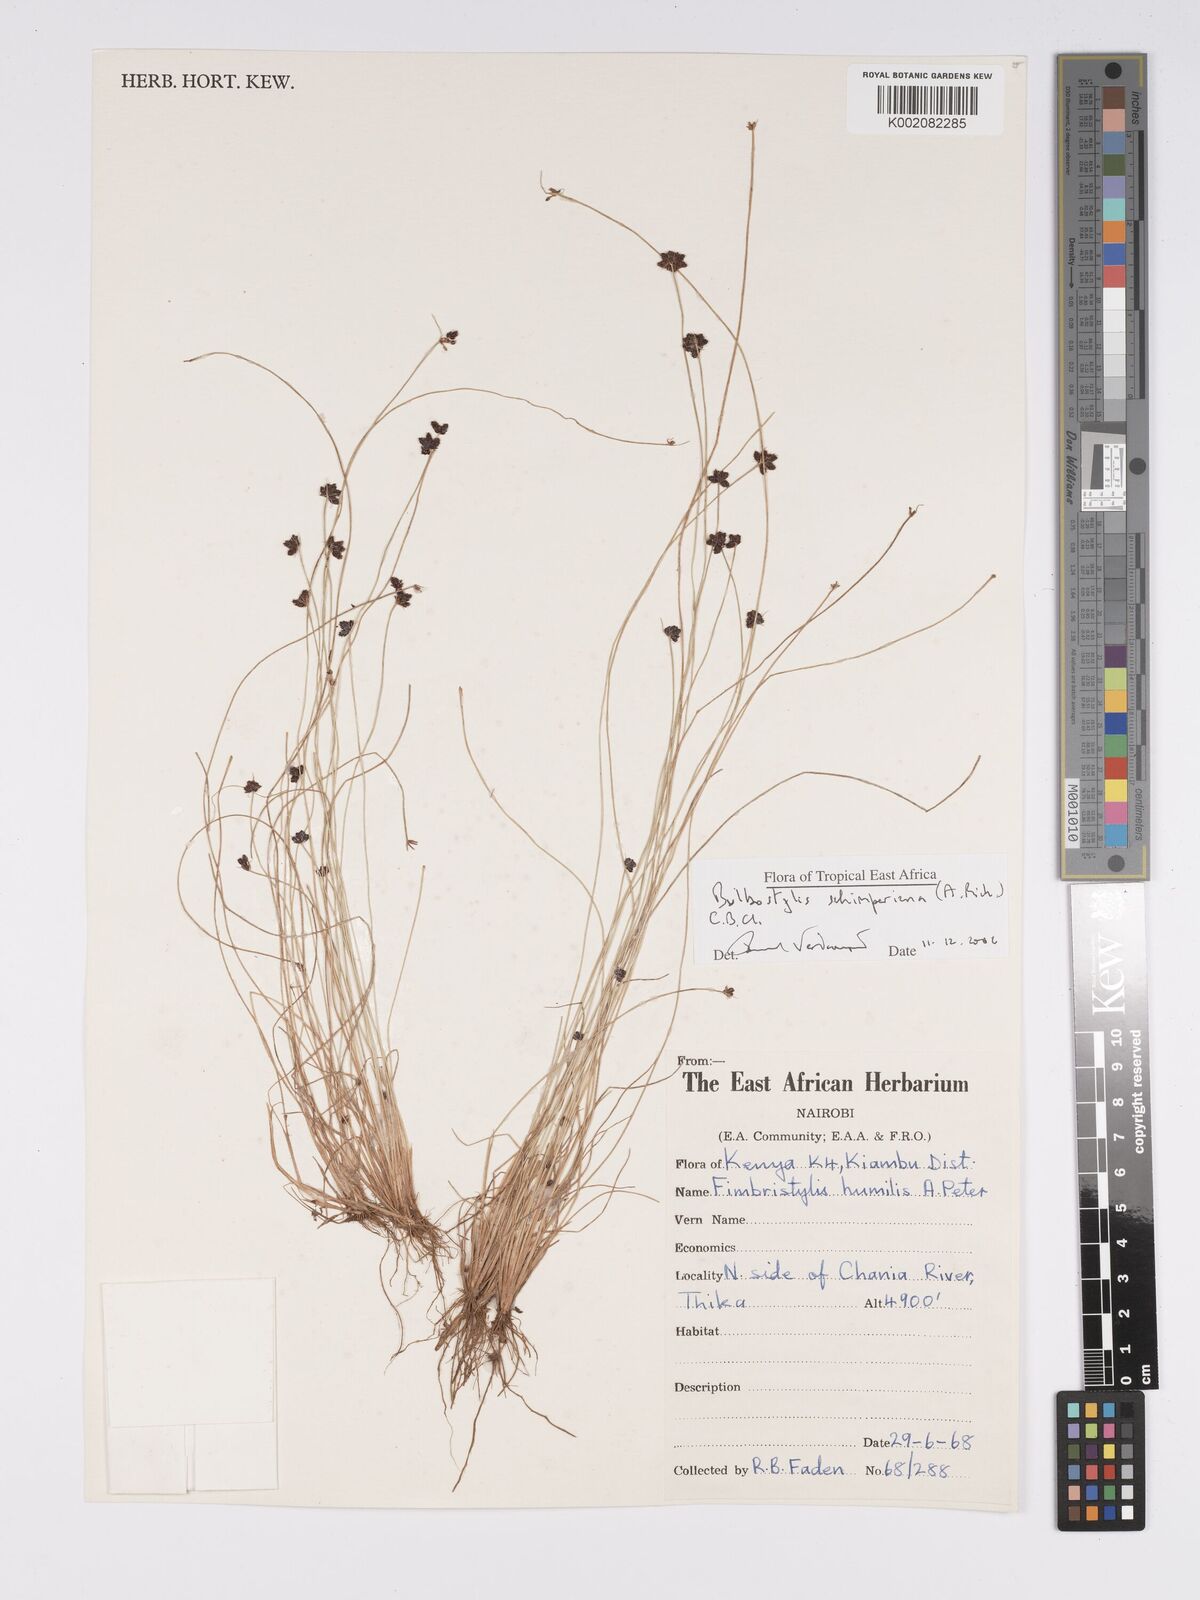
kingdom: Plantae
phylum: Tracheophyta
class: Liliopsida
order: Poales
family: Cyperaceae
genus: Bulbostylis
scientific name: Bulbostylis schimperiana
